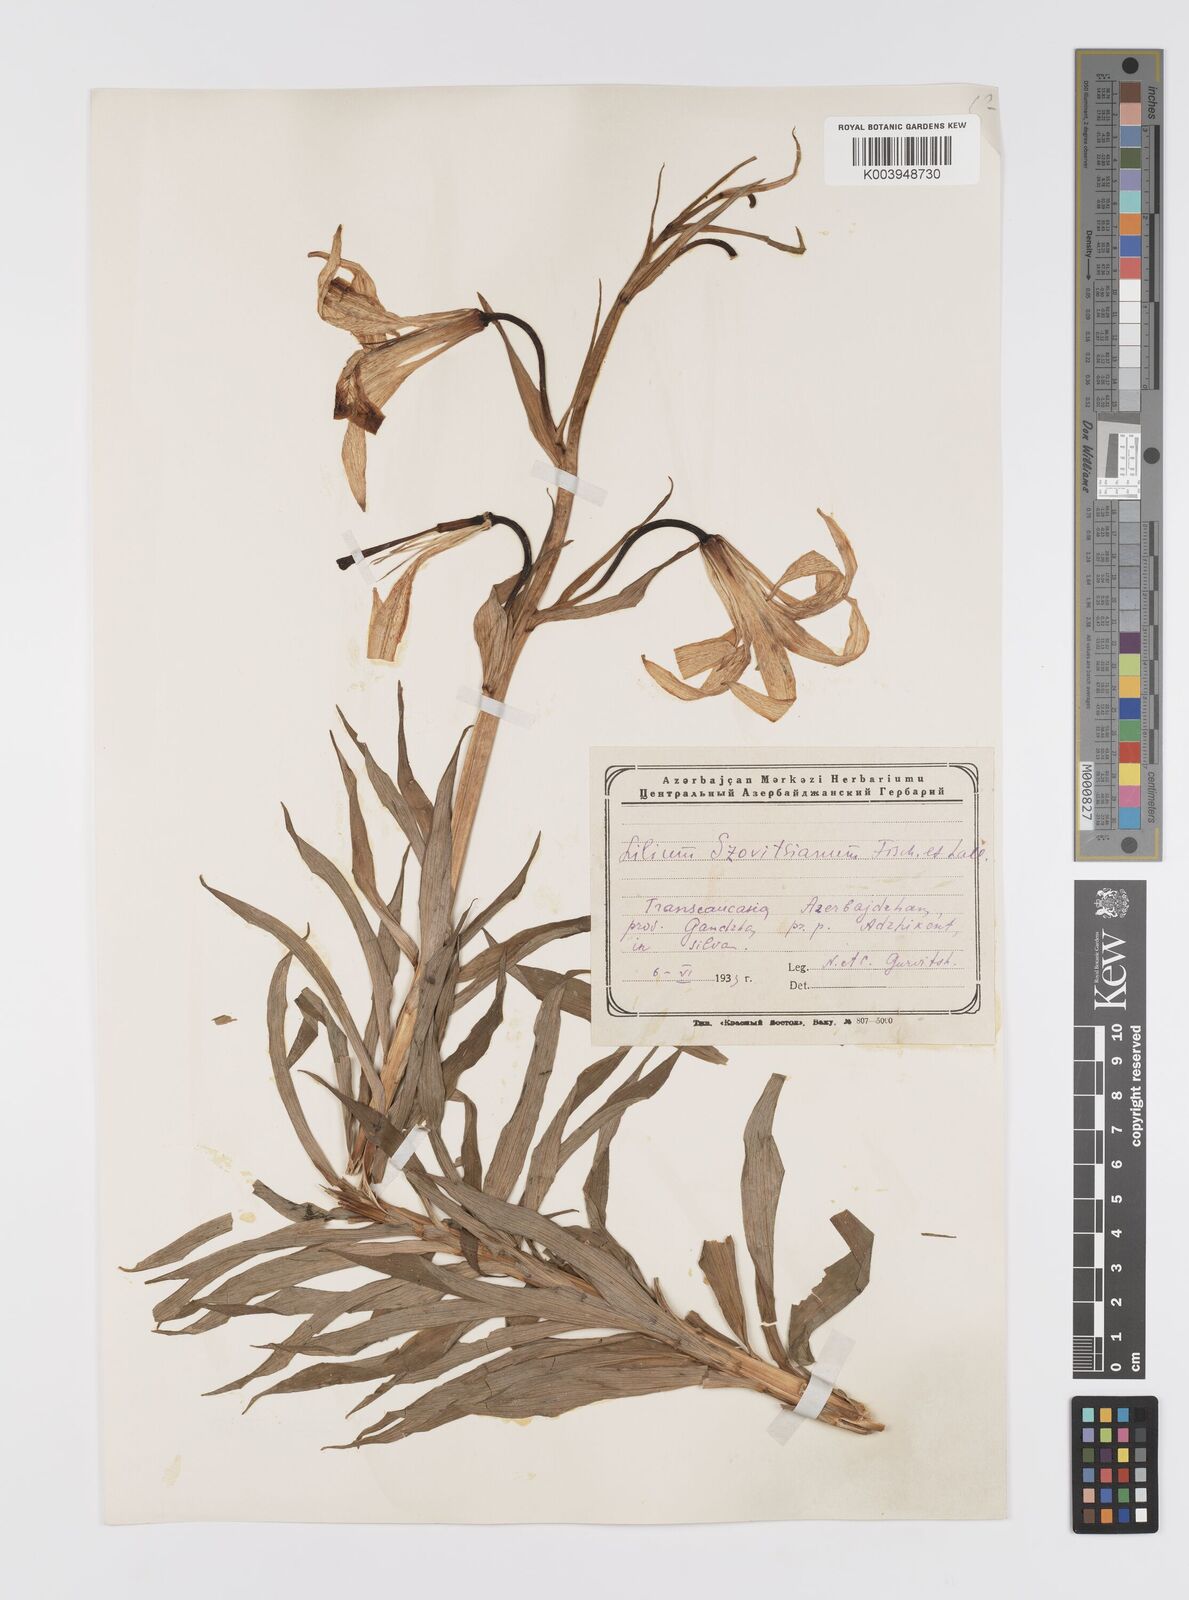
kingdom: Plantae
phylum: Tracheophyta
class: Liliopsida
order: Liliales
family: Liliaceae
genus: Lilium
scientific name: Lilium szovitsianum
